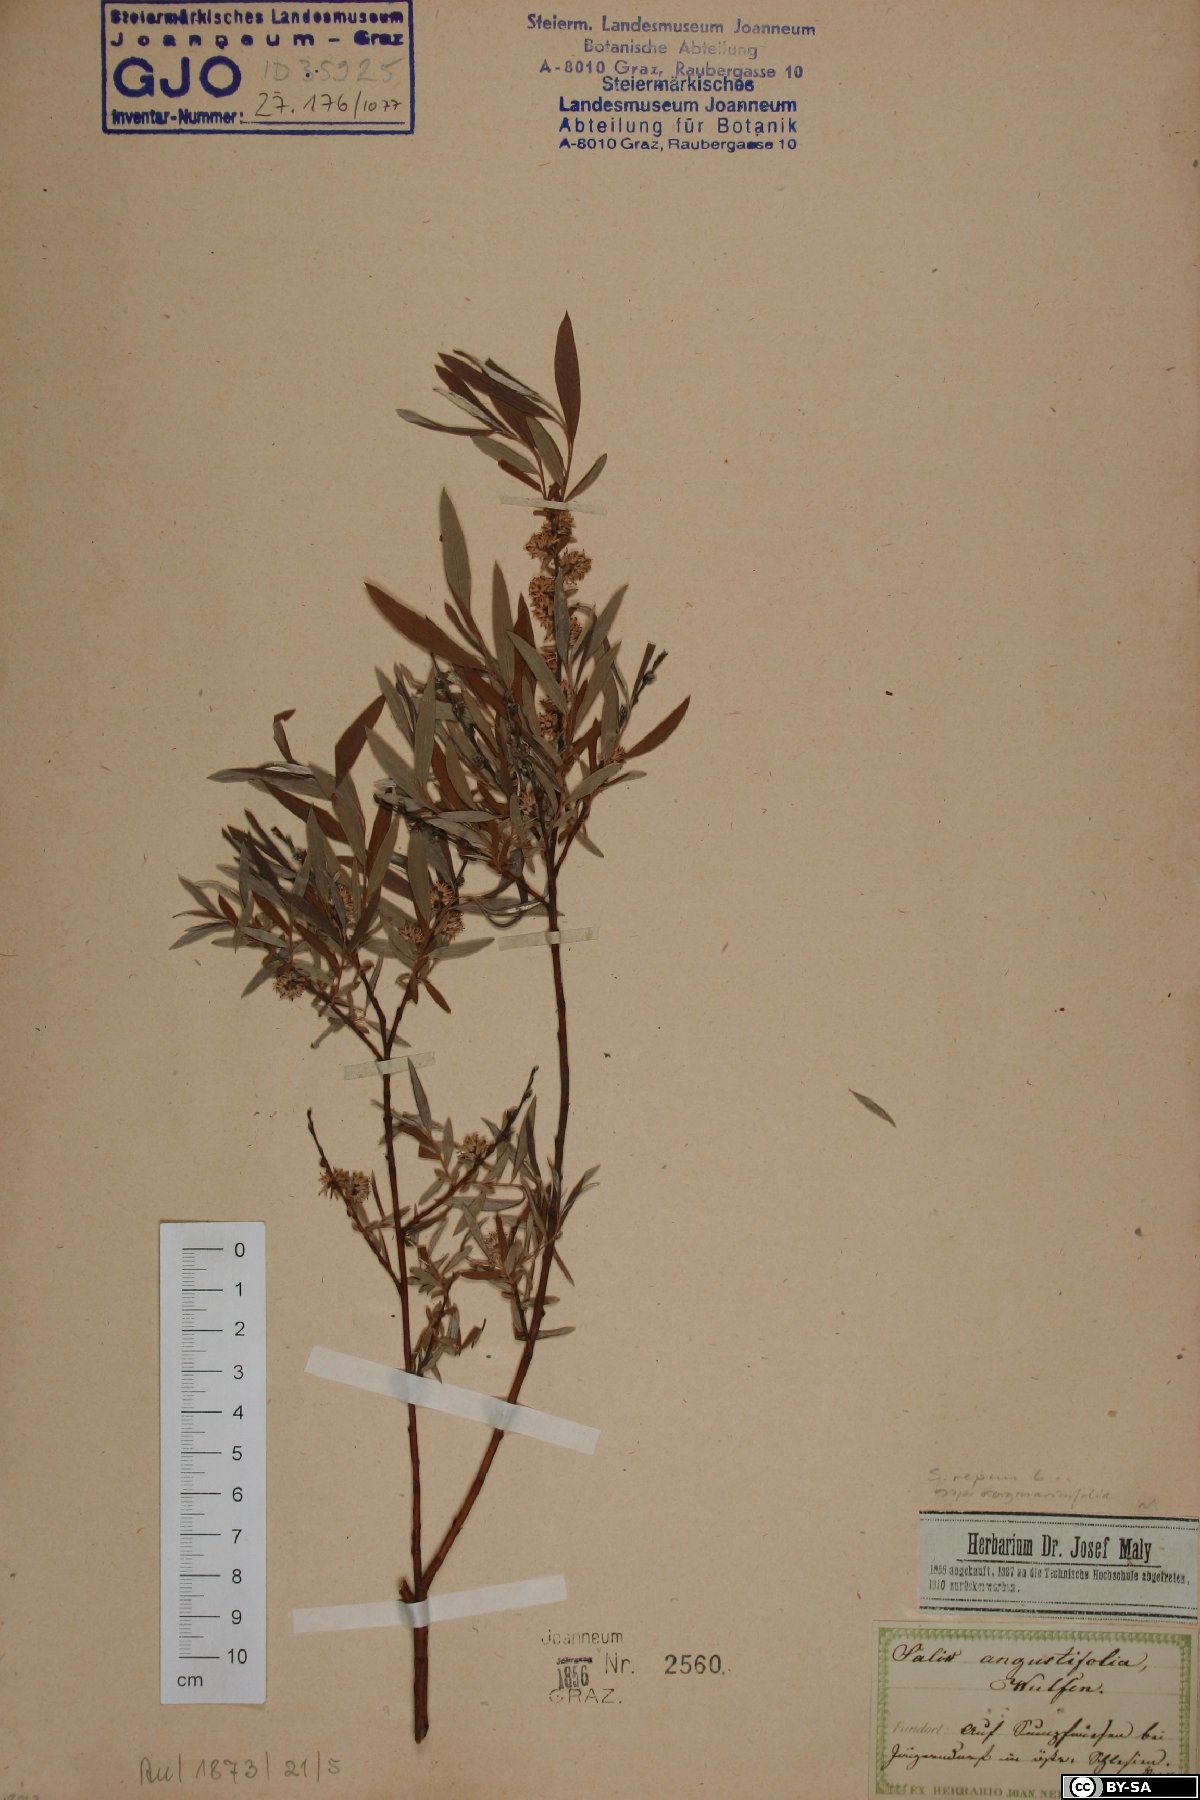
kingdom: Plantae
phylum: Tracheophyta
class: Magnoliopsida
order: Malpighiales
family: Salicaceae
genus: Salix
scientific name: Salix rosmarinifolia
